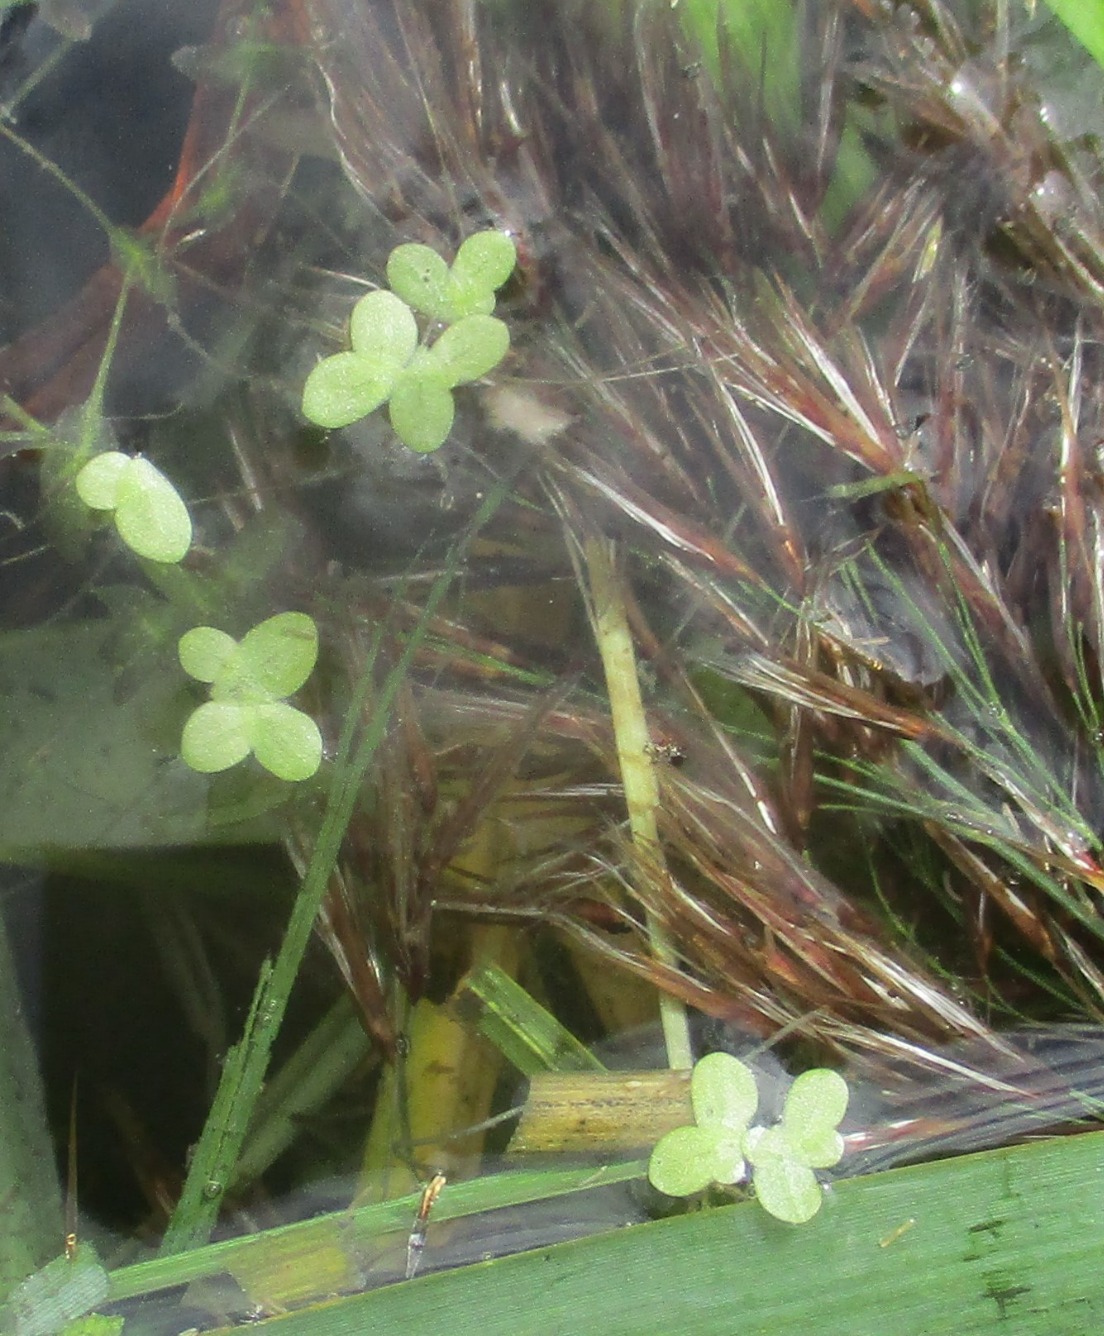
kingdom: Plantae
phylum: Tracheophyta
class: Liliopsida
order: Alismatales
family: Araceae
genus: Lemna
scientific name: Lemna minor
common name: Liden andemad
